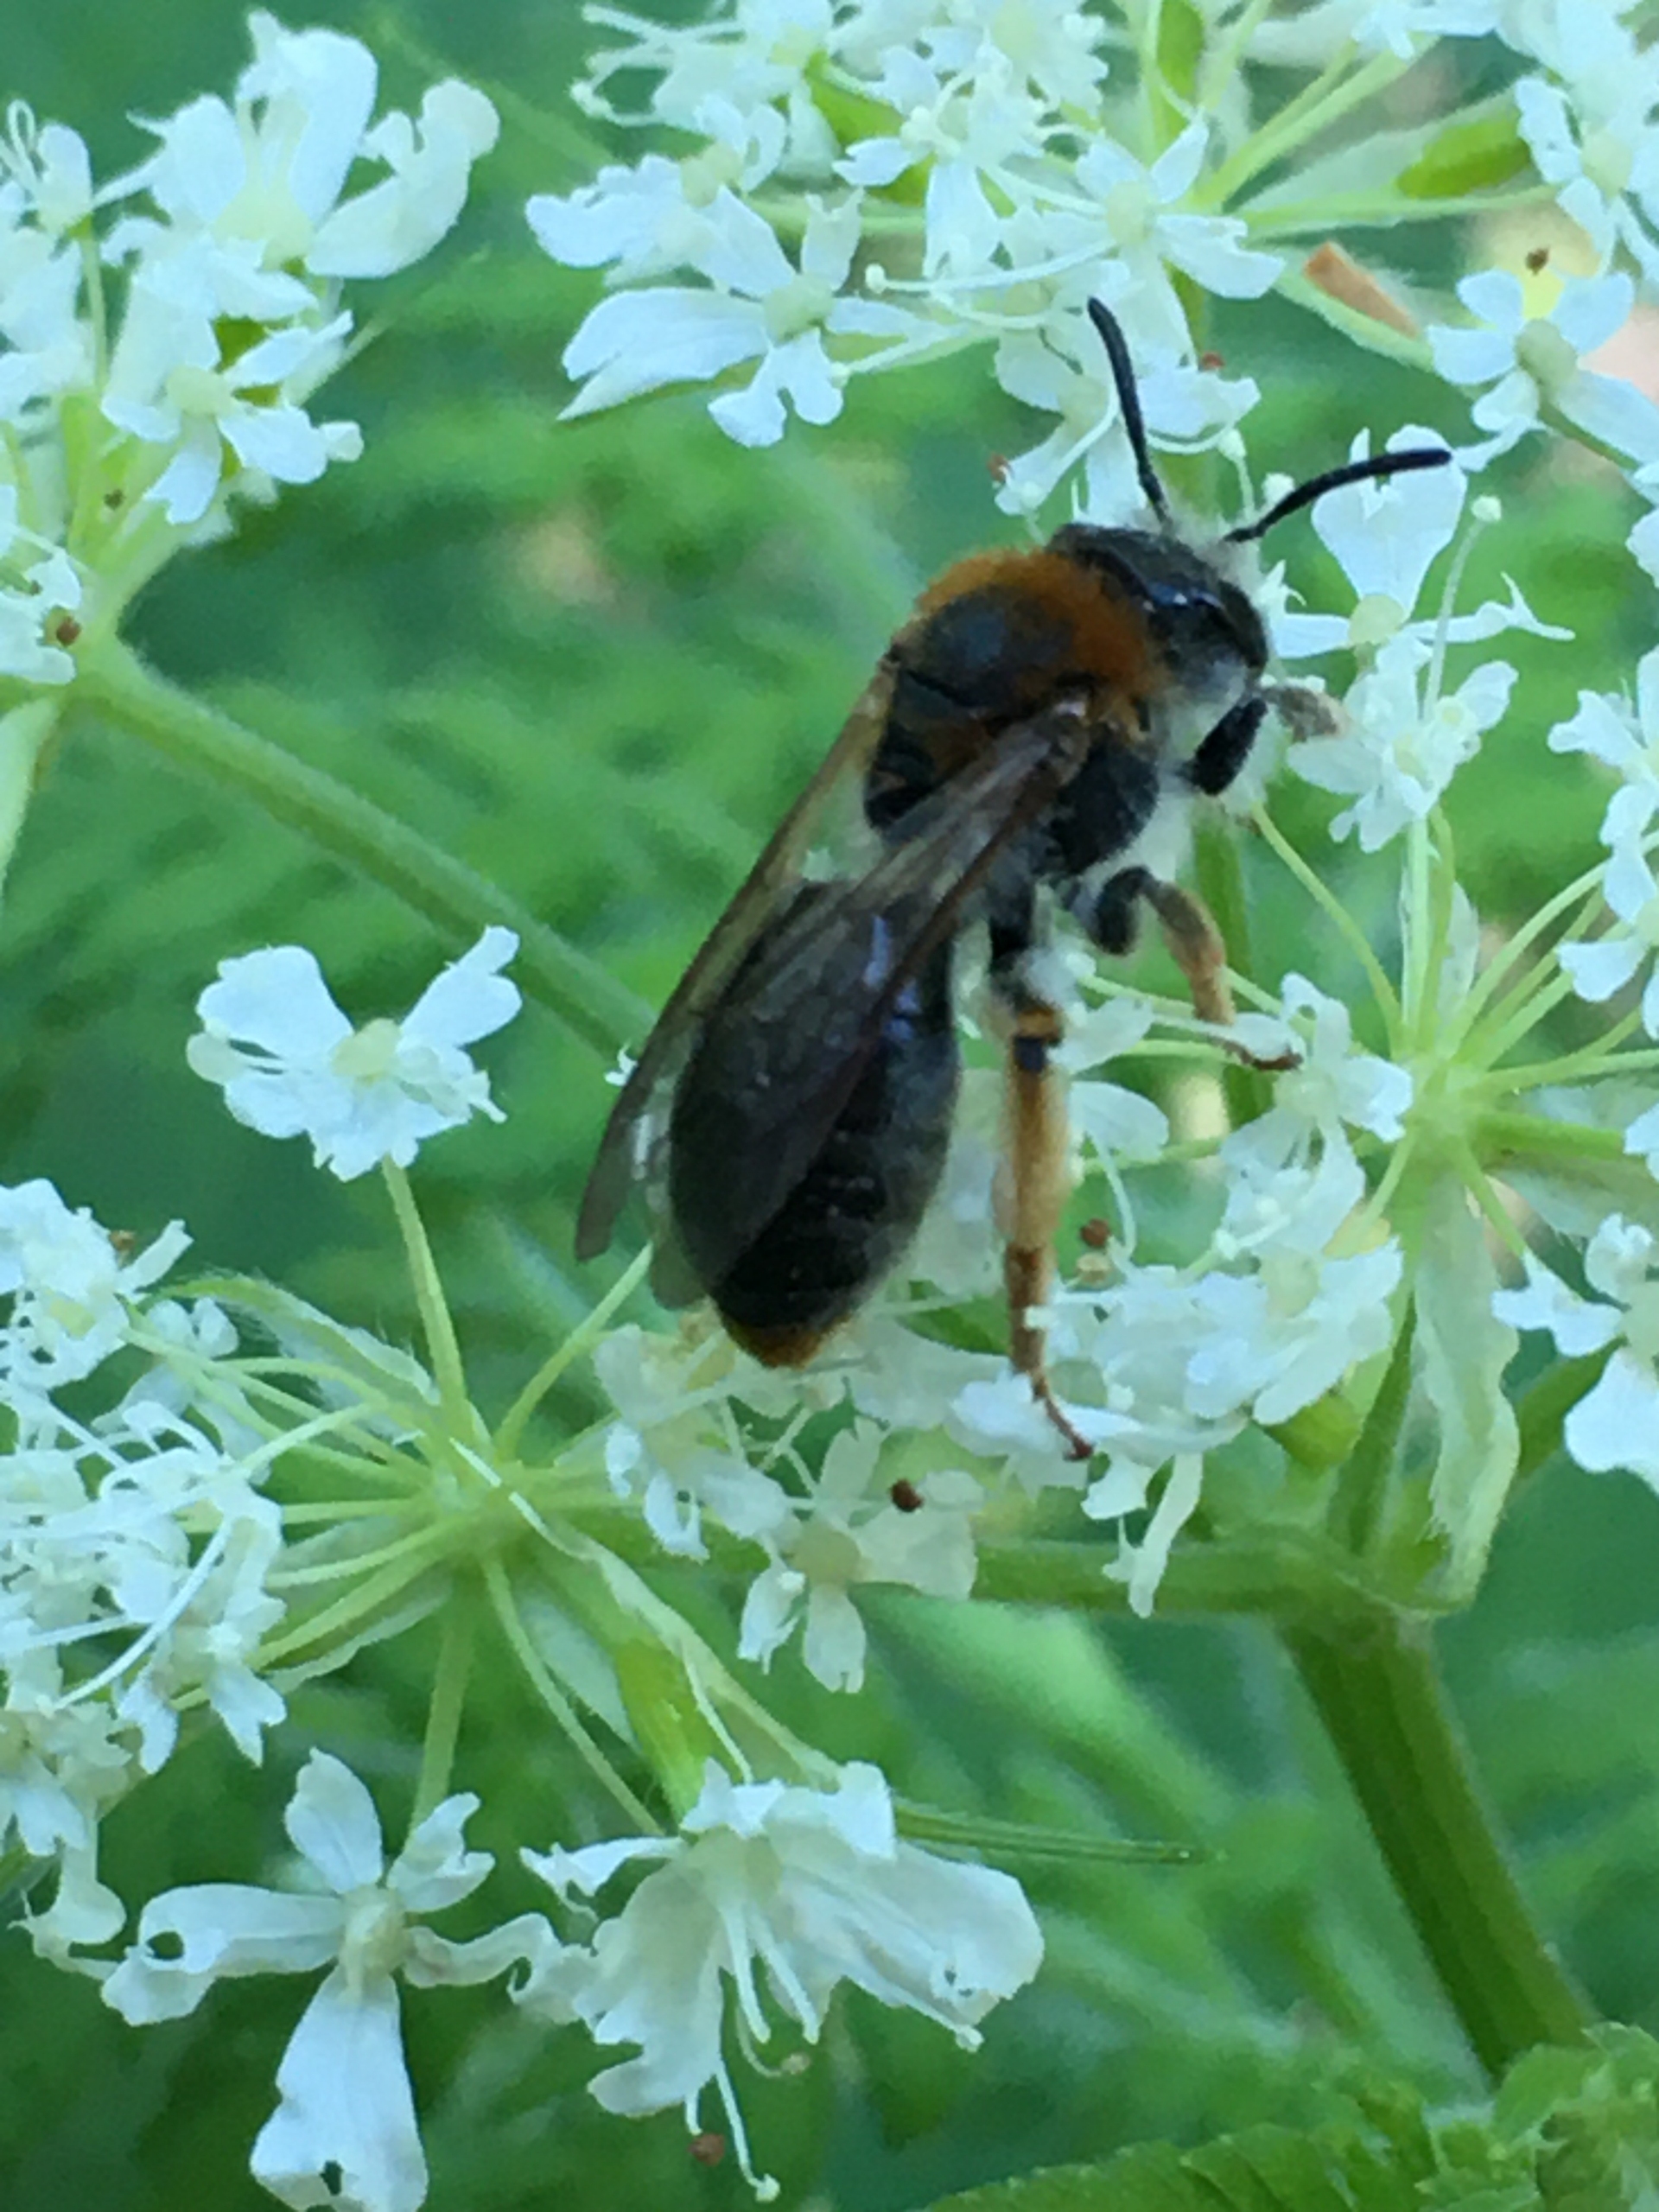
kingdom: Animalia
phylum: Arthropoda
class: Insecta
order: Hymenoptera
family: Andrenidae
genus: Andrena
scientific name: Andrena haemorrhoa
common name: Havejordbi
